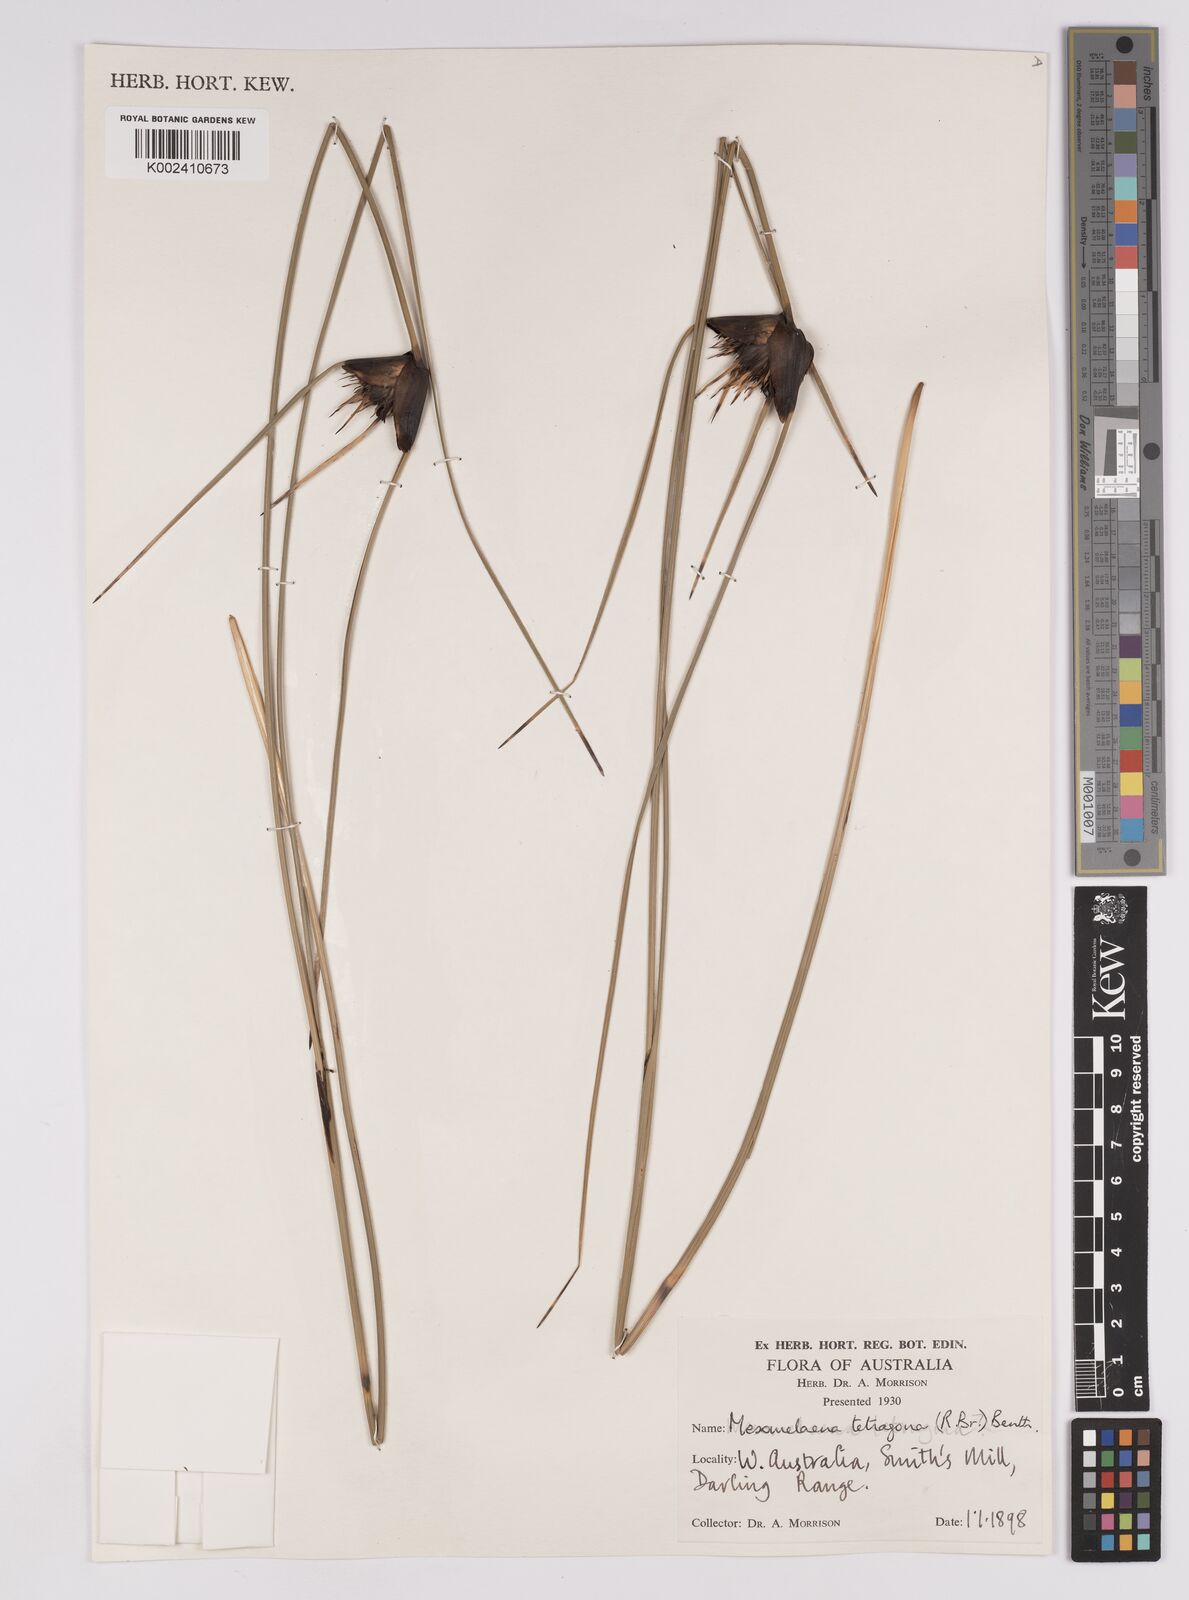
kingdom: Plantae
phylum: Tracheophyta
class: Liliopsida
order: Poales
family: Cyperaceae
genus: Mesomelaena
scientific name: Mesomelaena tetragona
